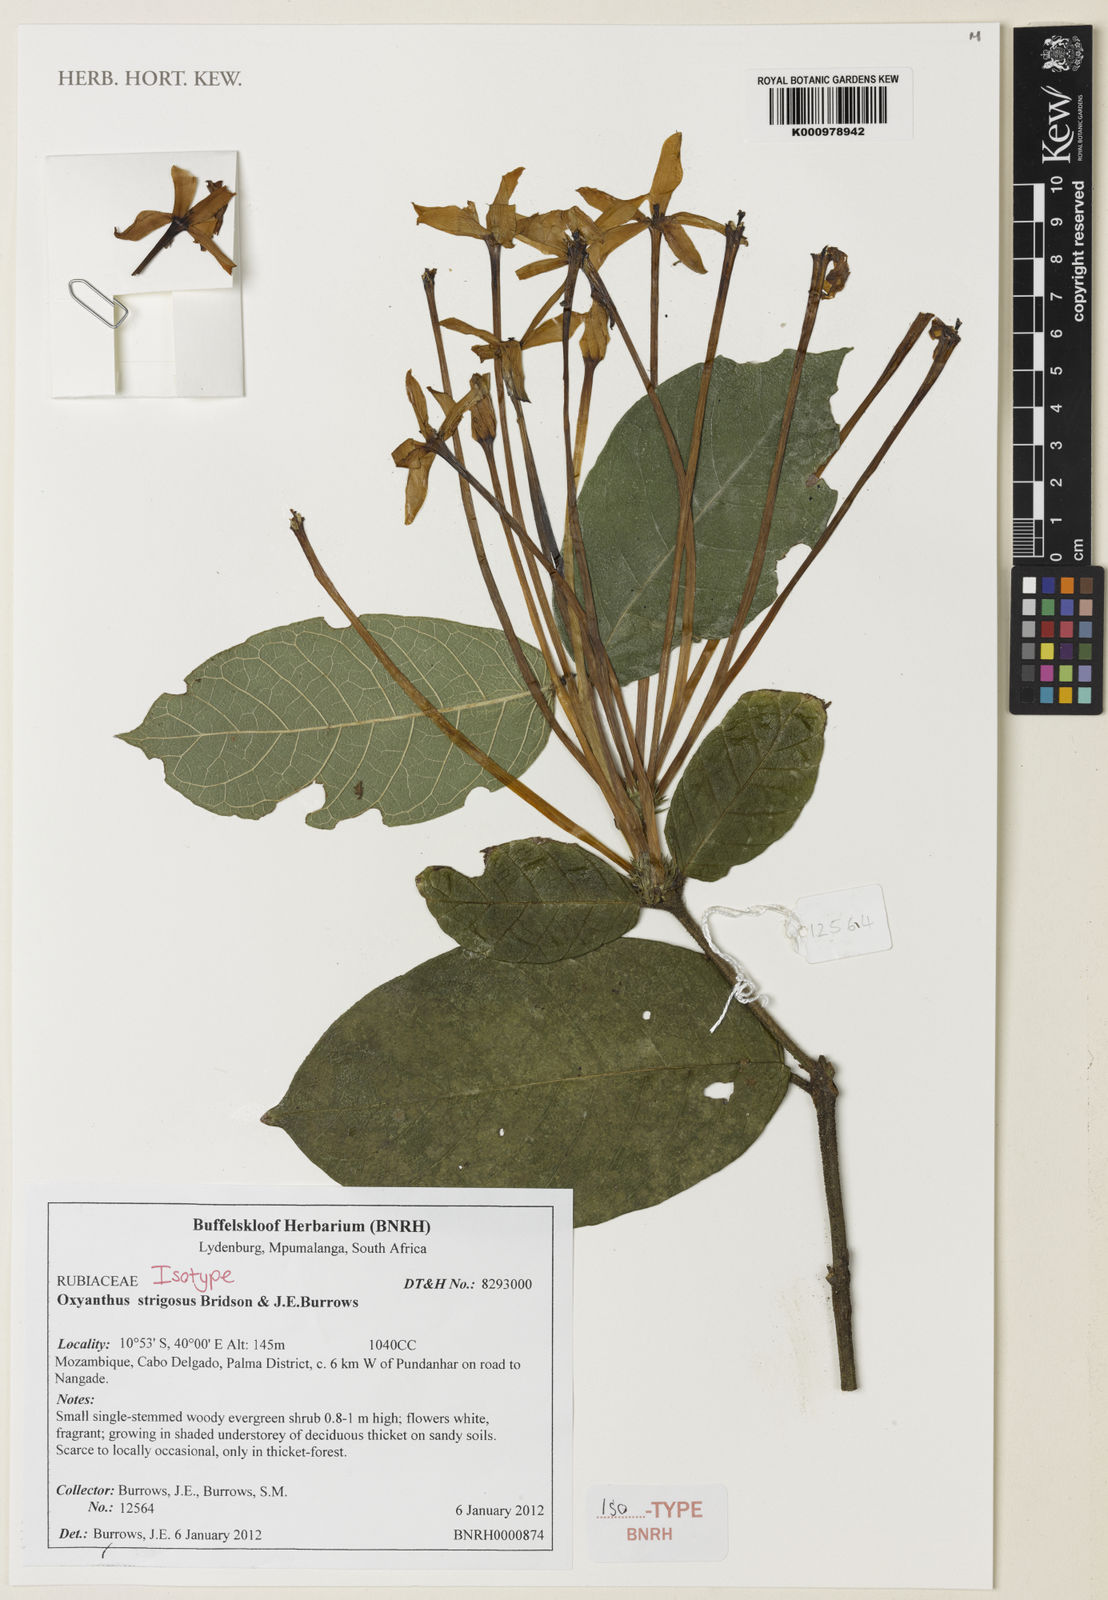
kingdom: Plantae
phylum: Tracheophyta
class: Magnoliopsida
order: Gentianales
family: Rubiaceae
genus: Oxyanthus
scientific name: Oxyanthus strigosus
